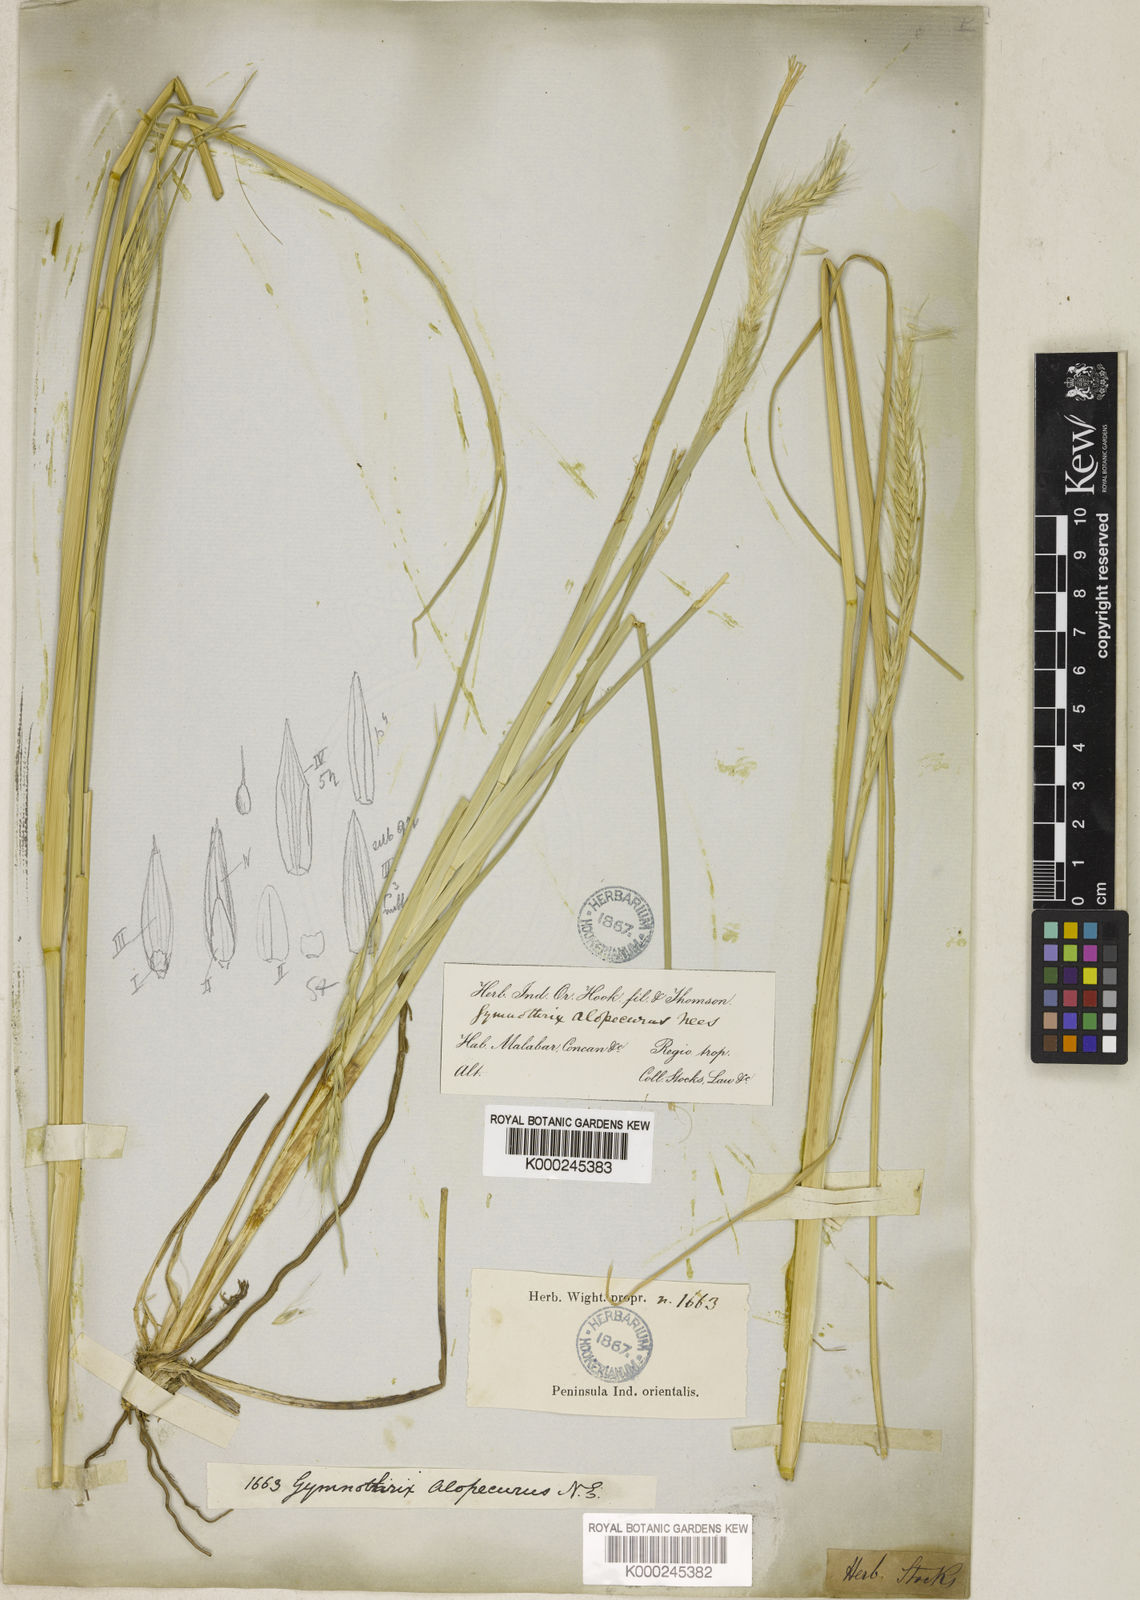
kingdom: Plantae
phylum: Tracheophyta
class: Liliopsida
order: Poales
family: Poaceae
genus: Cenchrus
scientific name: Cenchrus hohenackeri
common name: Moya grass
